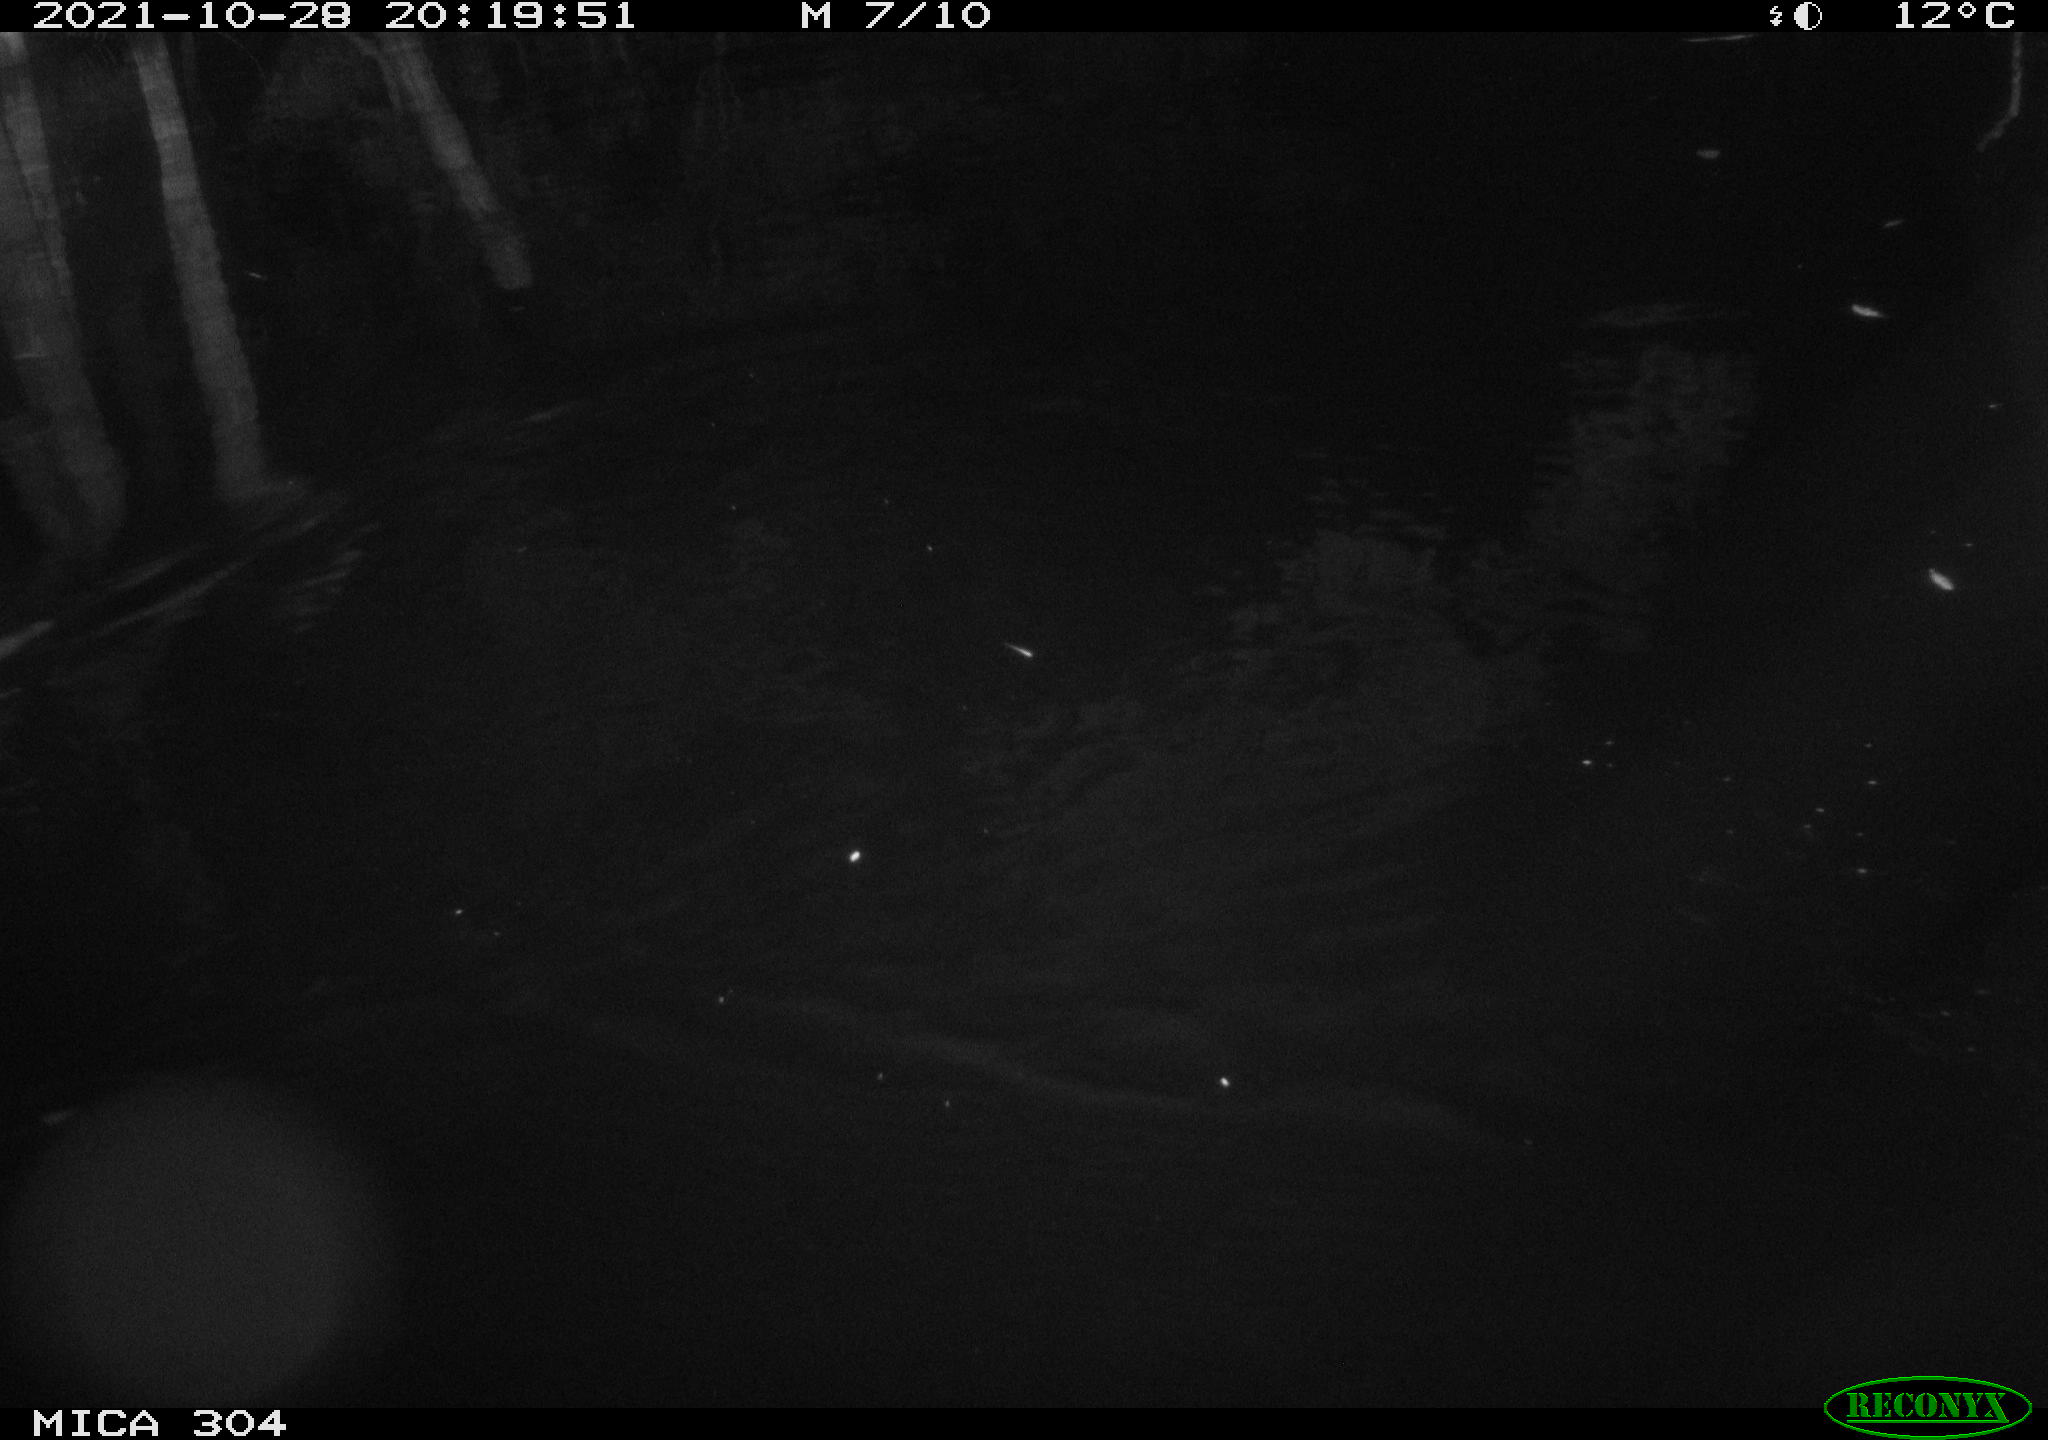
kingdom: Animalia
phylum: Chordata
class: Mammalia
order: Rodentia
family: Muridae
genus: Rattus
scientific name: Rattus norvegicus
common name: Brown rat
